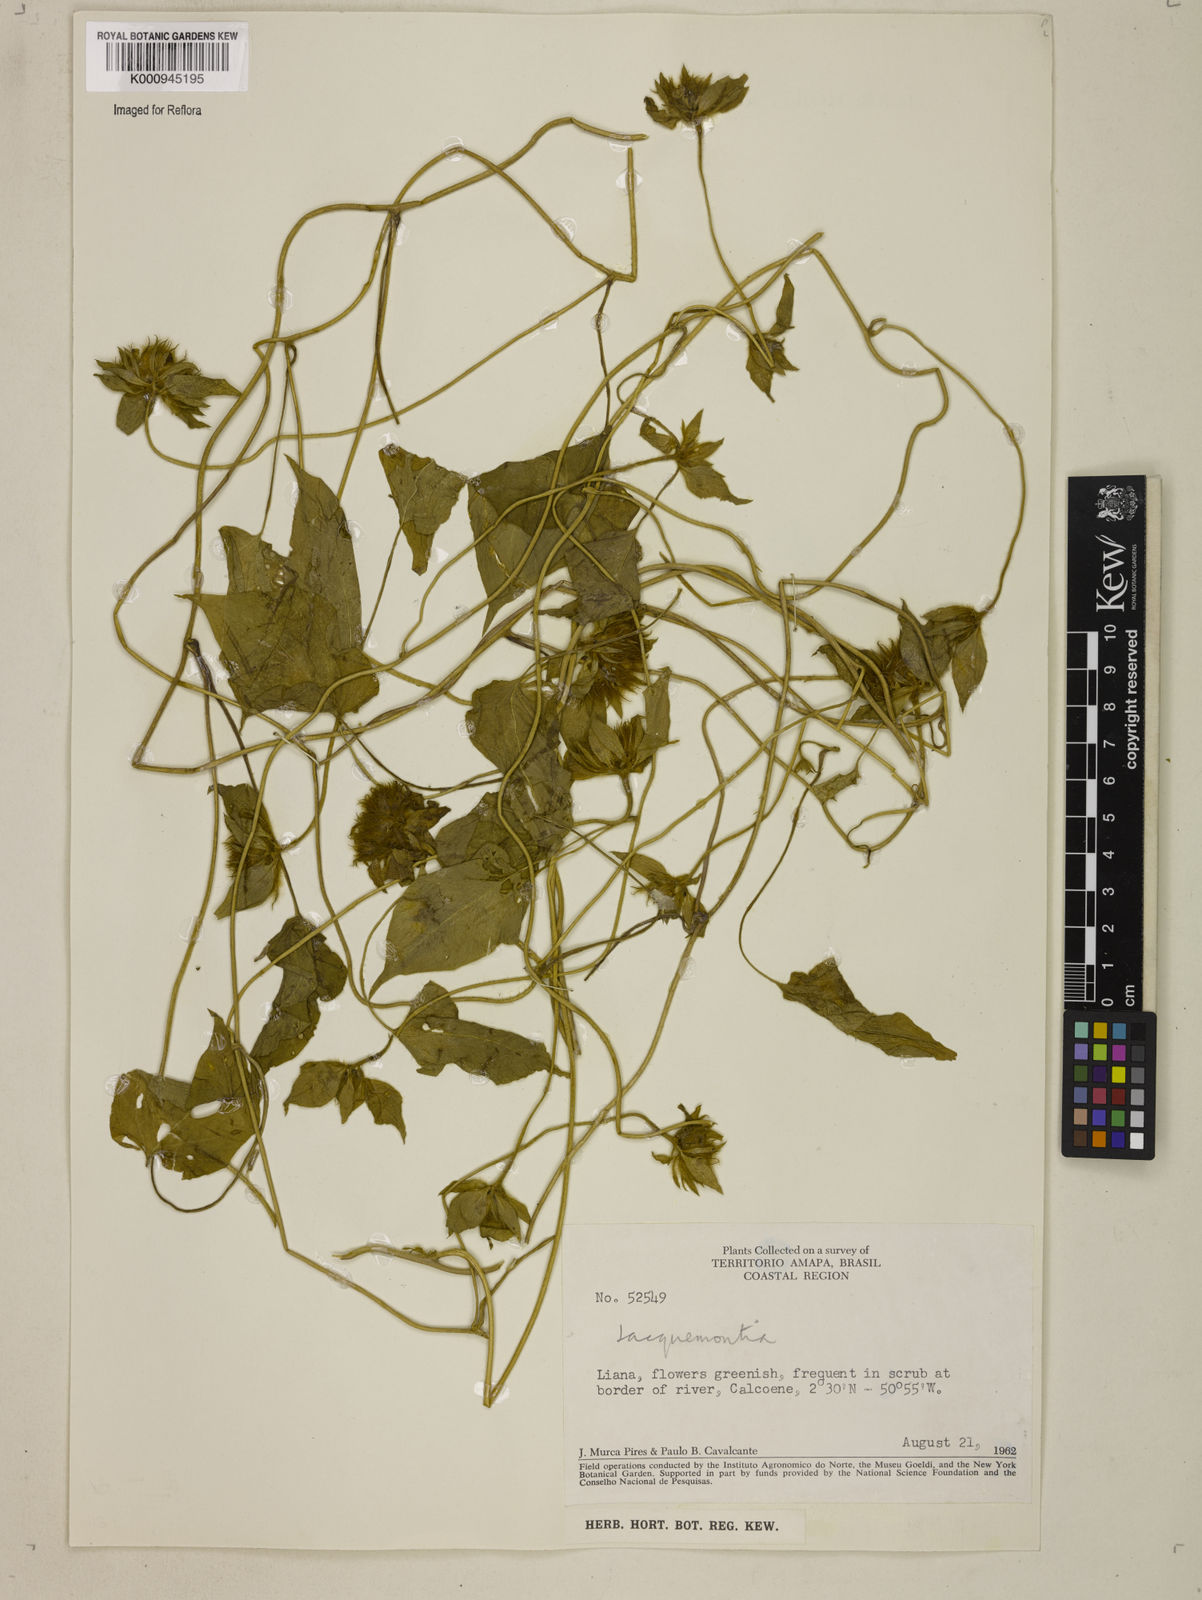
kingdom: Plantae
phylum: Tracheophyta
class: Magnoliopsida
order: Solanales
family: Convolvulaceae
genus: Jacquemontia
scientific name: Jacquemontia tamnifolia
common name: Hairy clustervine
